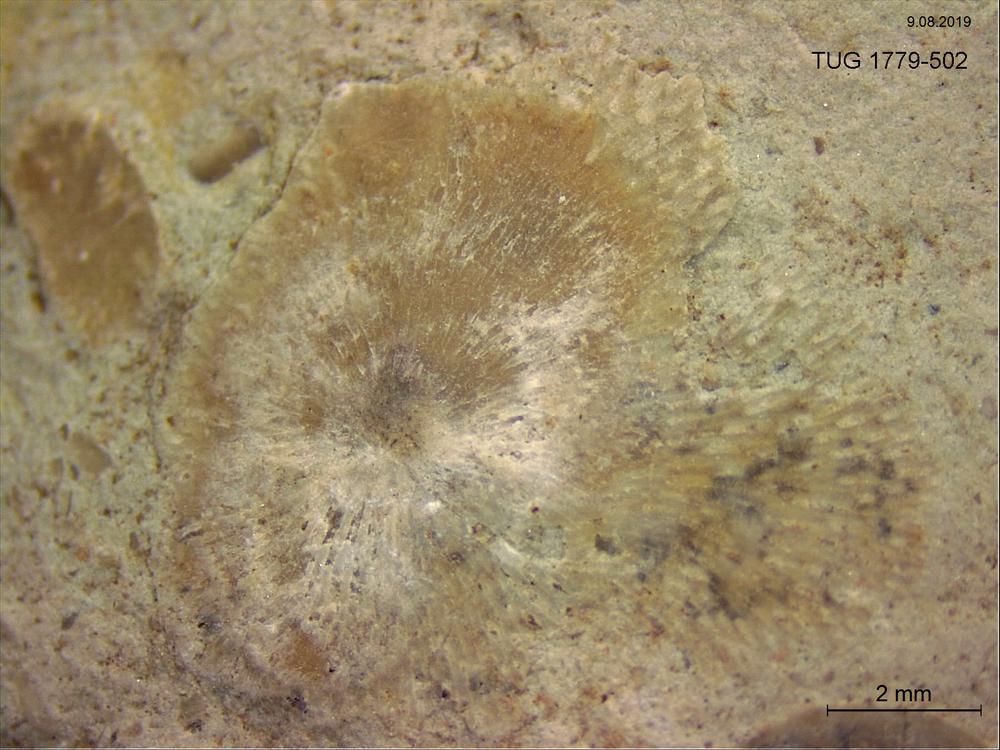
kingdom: Animalia
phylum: Bryozoa
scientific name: Bryozoa
